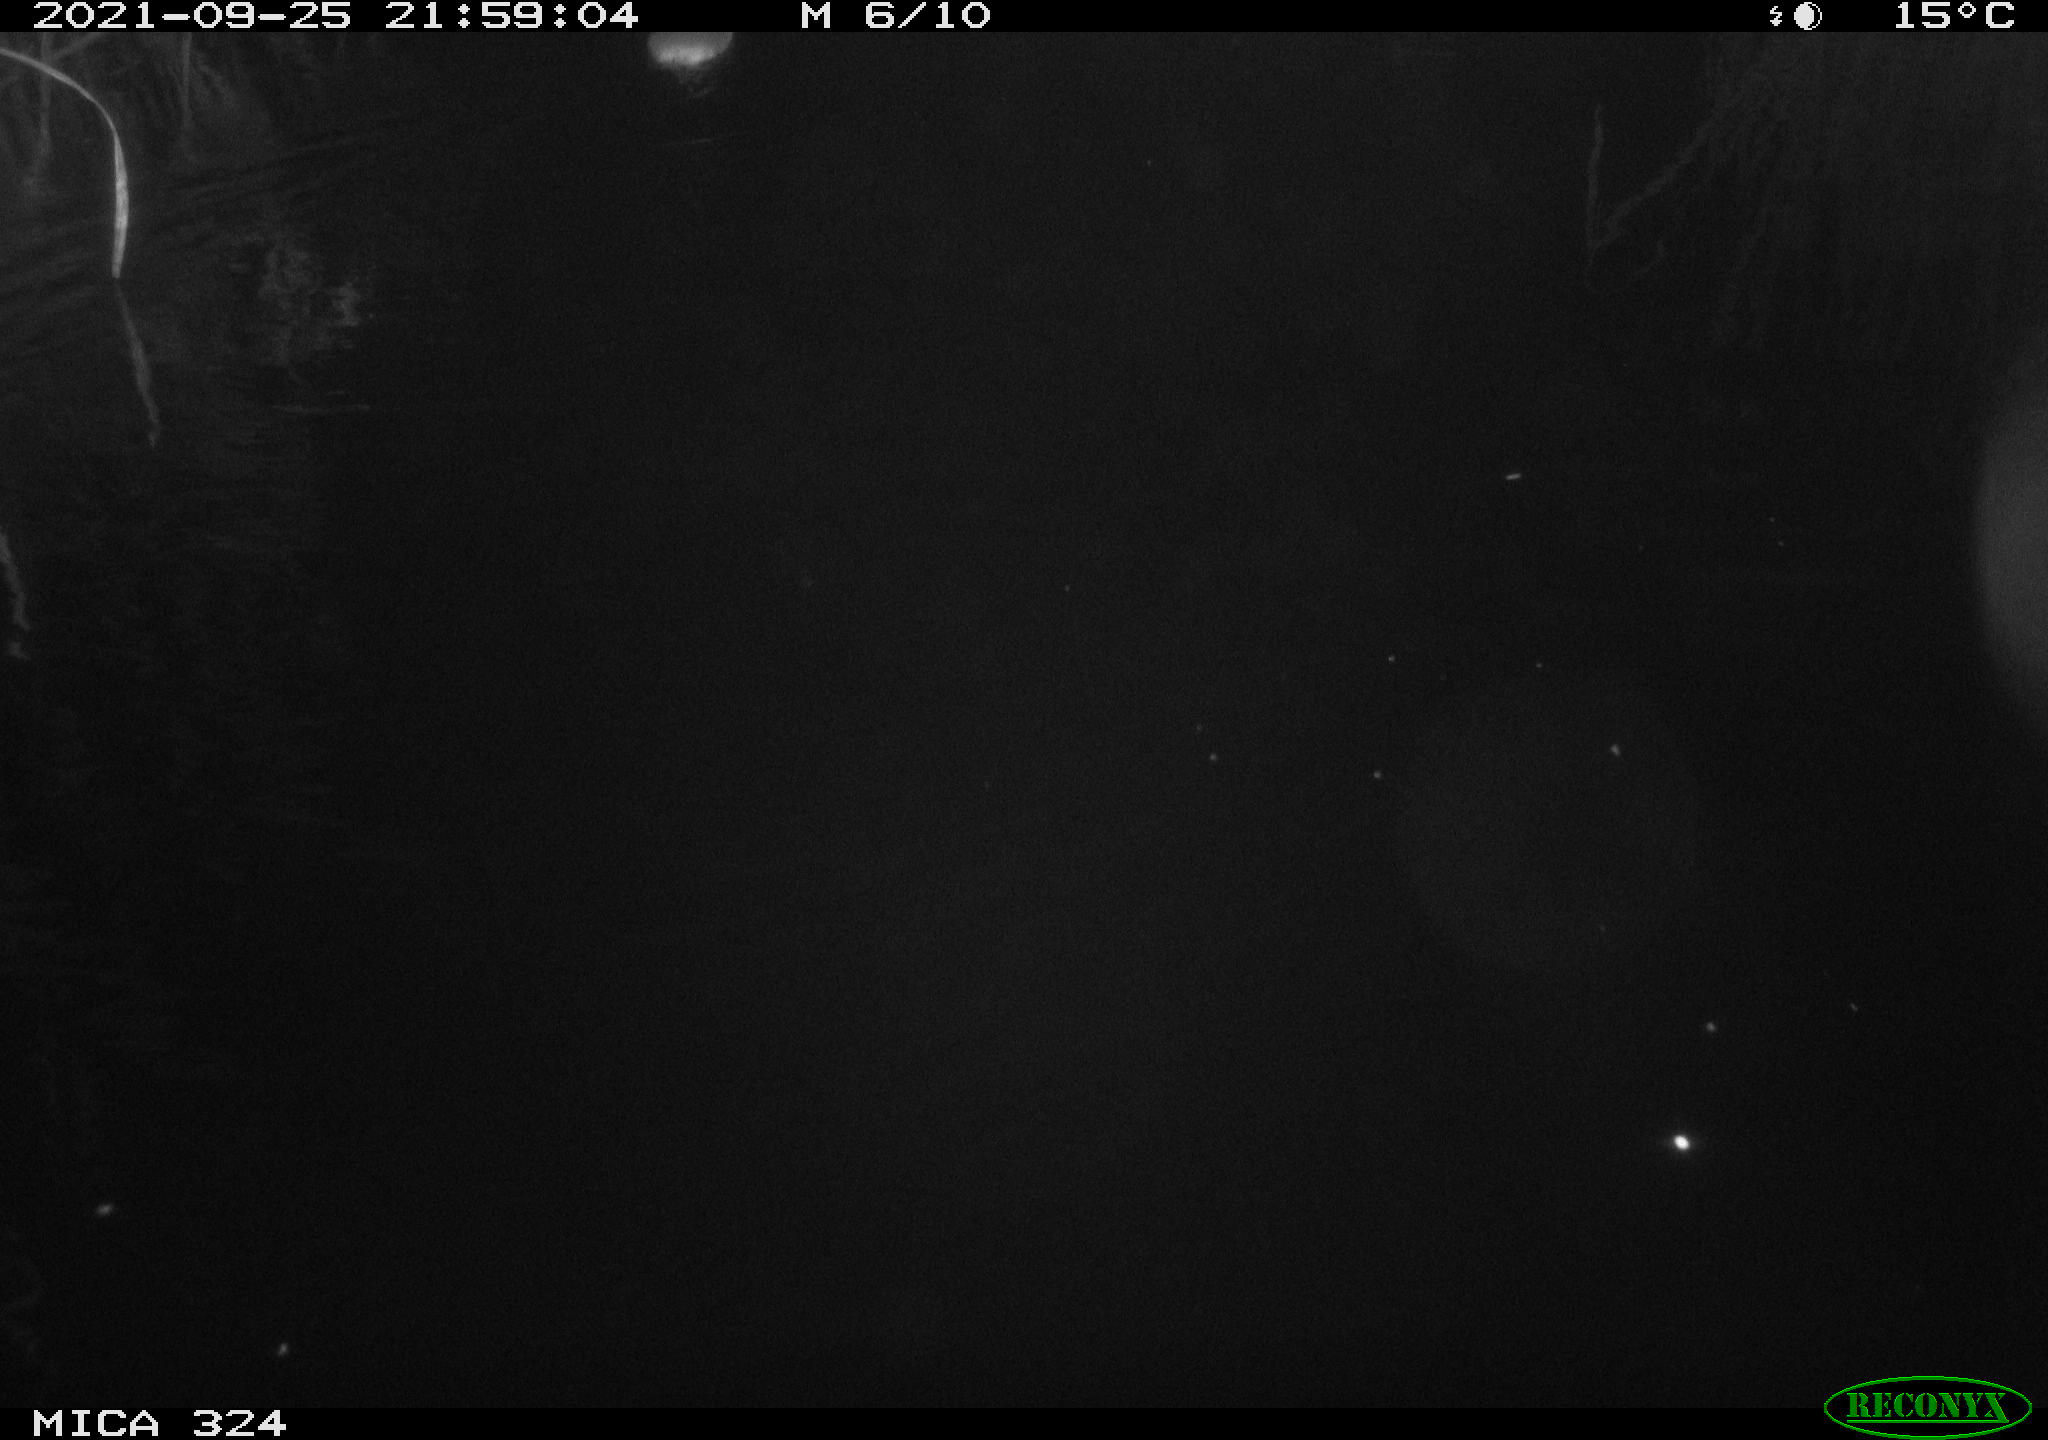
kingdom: Animalia
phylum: Chordata
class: Mammalia
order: Rodentia
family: Cricetidae
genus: Ondatra
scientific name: Ondatra zibethicus
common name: Muskrat
